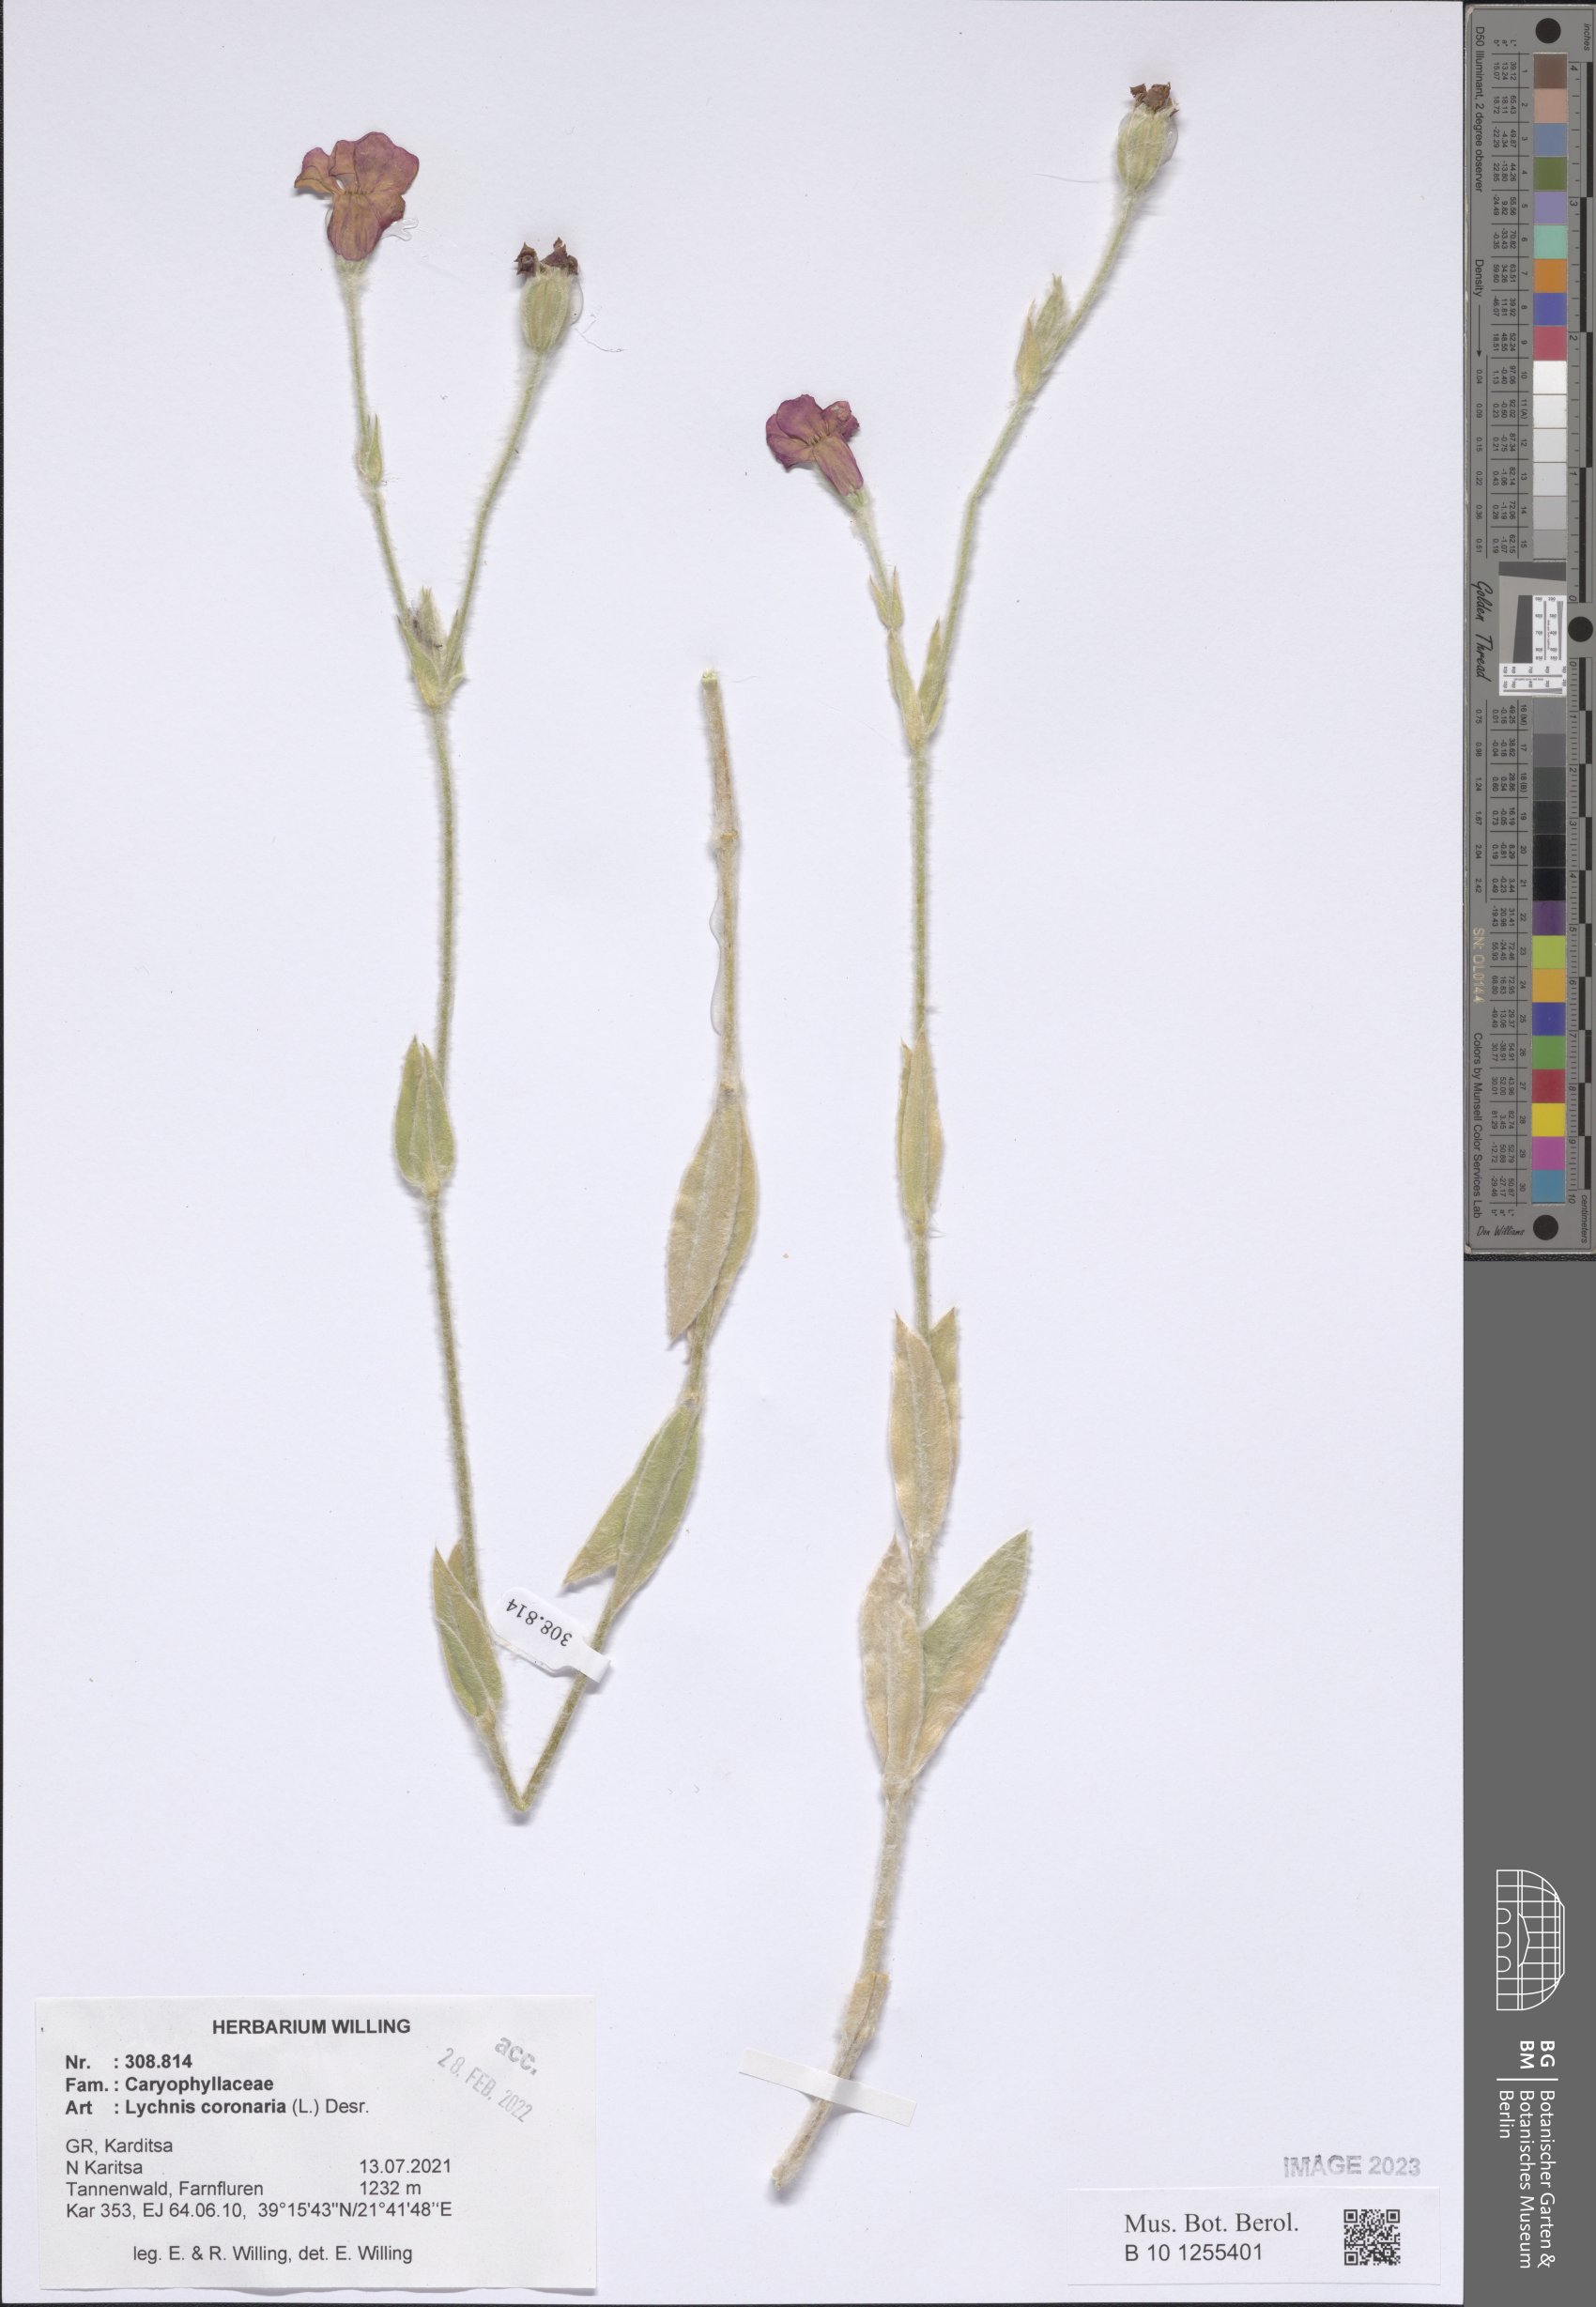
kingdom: Plantae
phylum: Tracheophyta
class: Magnoliopsida
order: Caryophyllales
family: Caryophyllaceae
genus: Silene
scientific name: Silene coronaria
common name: Rose campion
